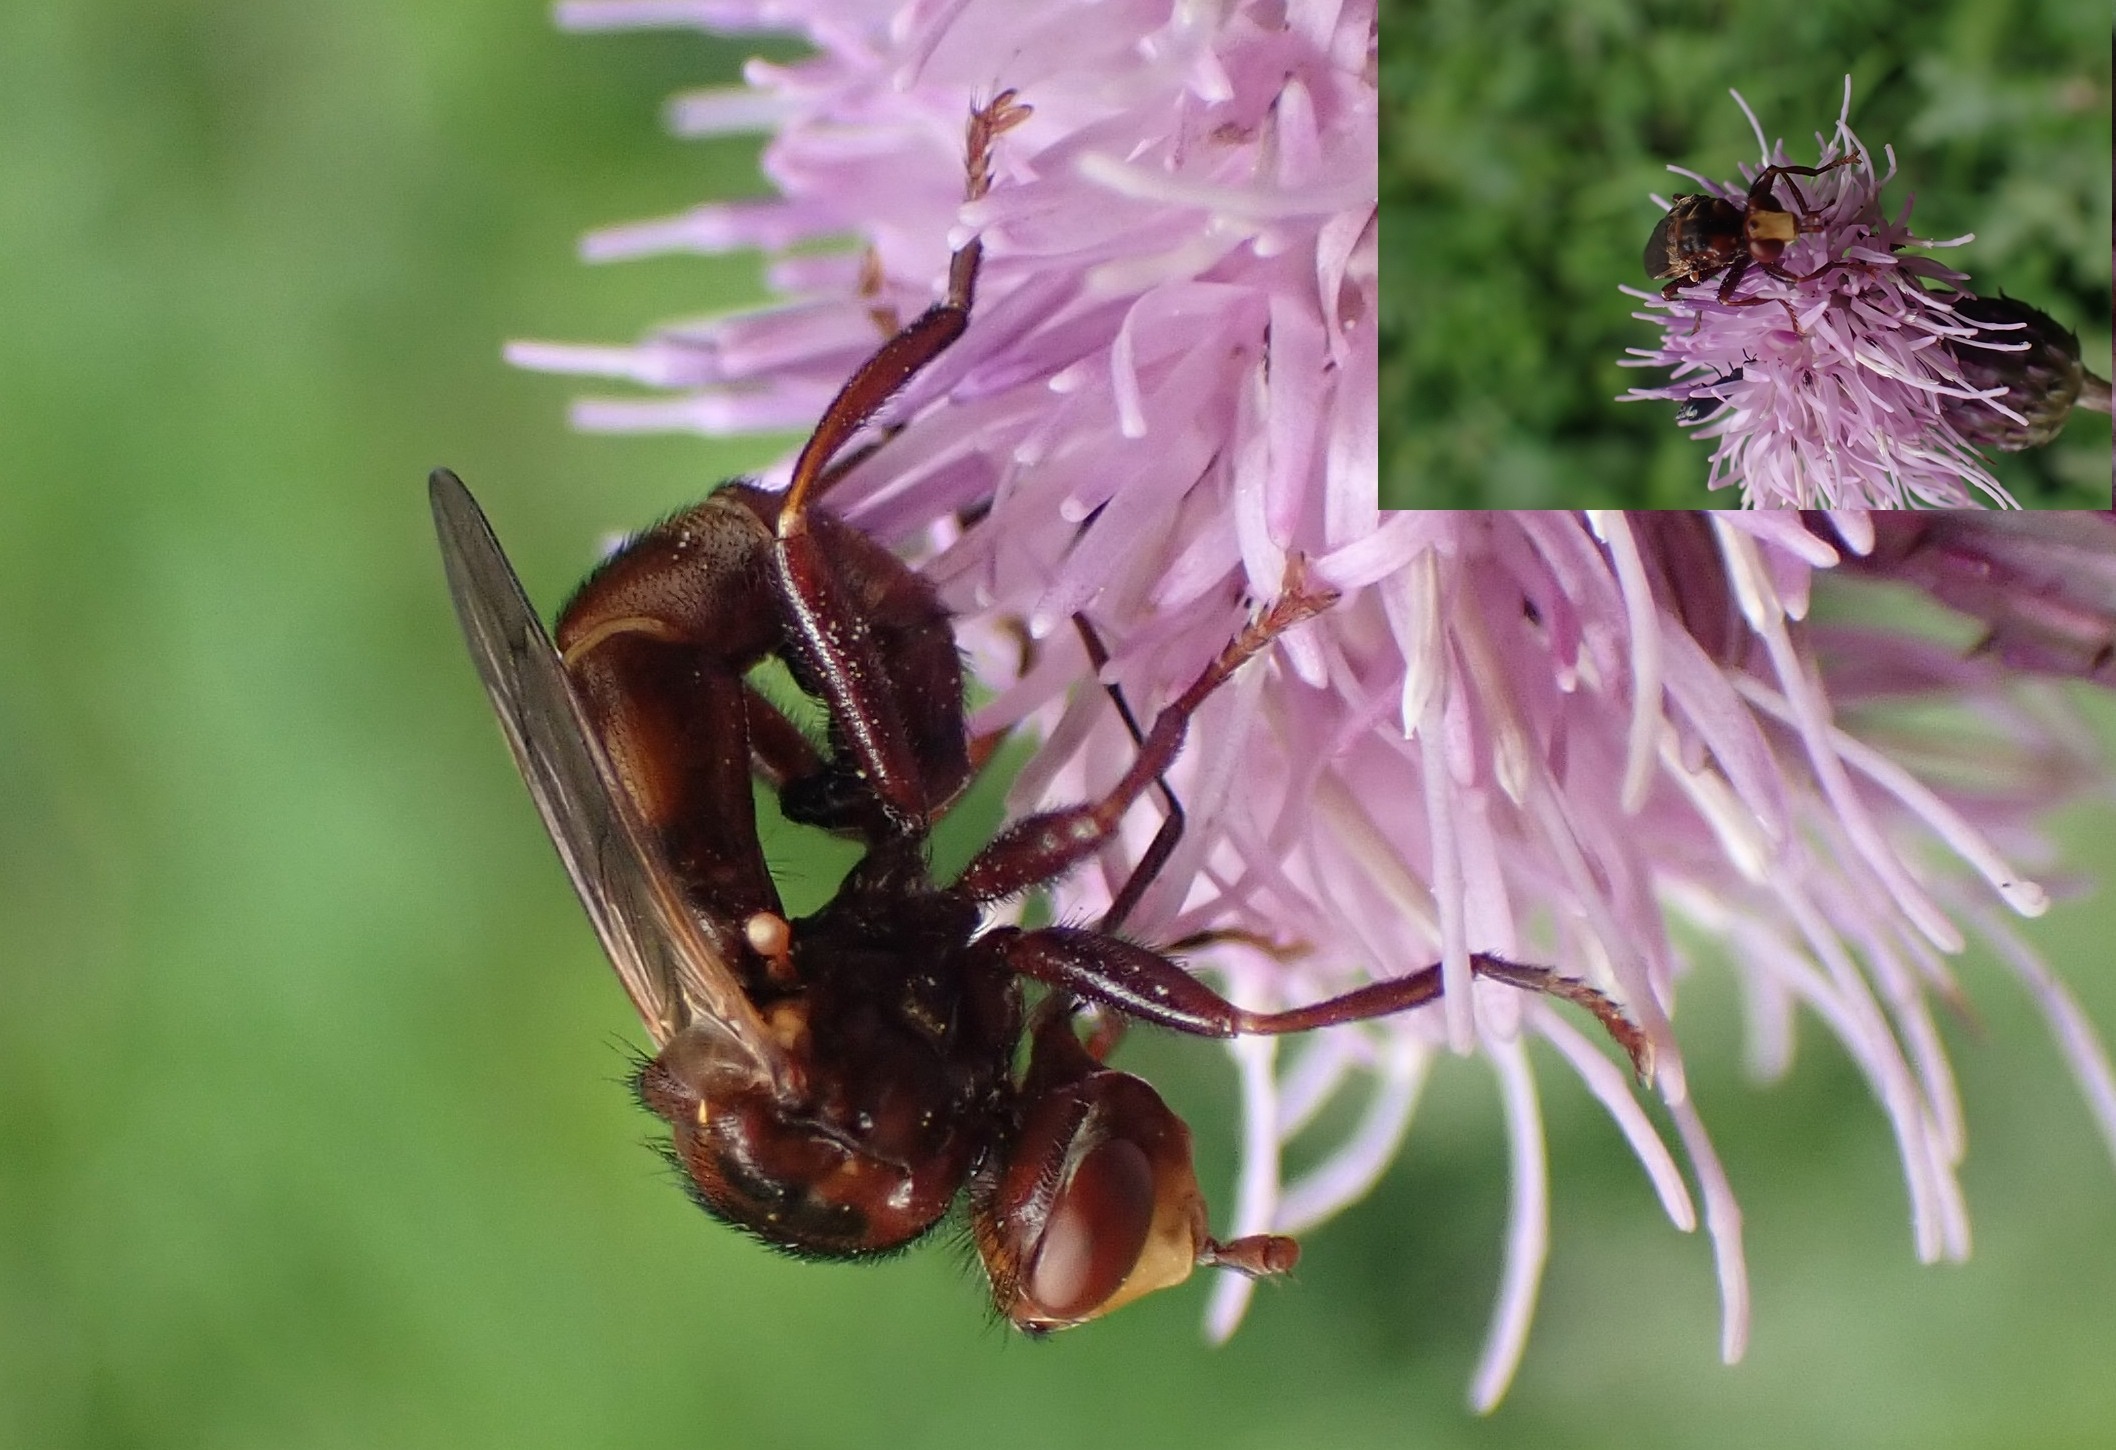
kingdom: Animalia
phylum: Arthropoda
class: Insecta
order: Diptera
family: Conopidae
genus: Sicus
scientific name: Sicus ferrugineus
